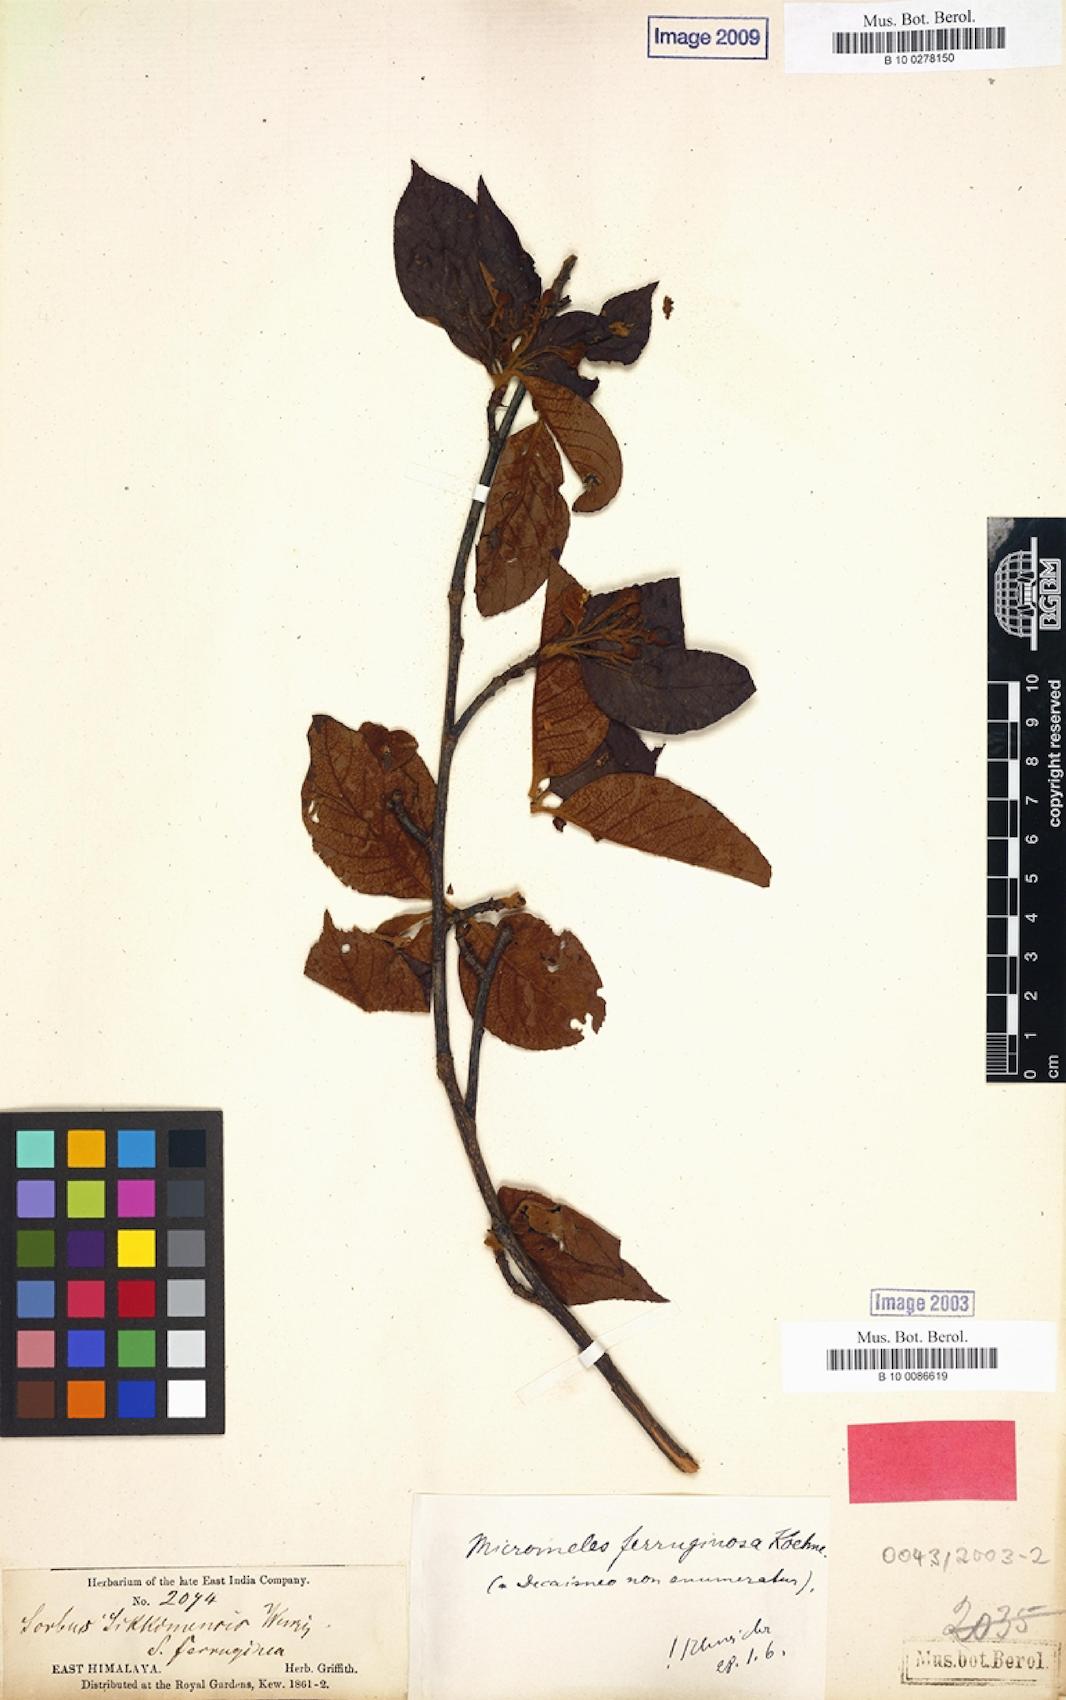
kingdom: Plantae
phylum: Tracheophyta
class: Magnoliopsida
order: Rosales
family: Rosaceae
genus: Sorbus
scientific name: Sorbus ferruginea
